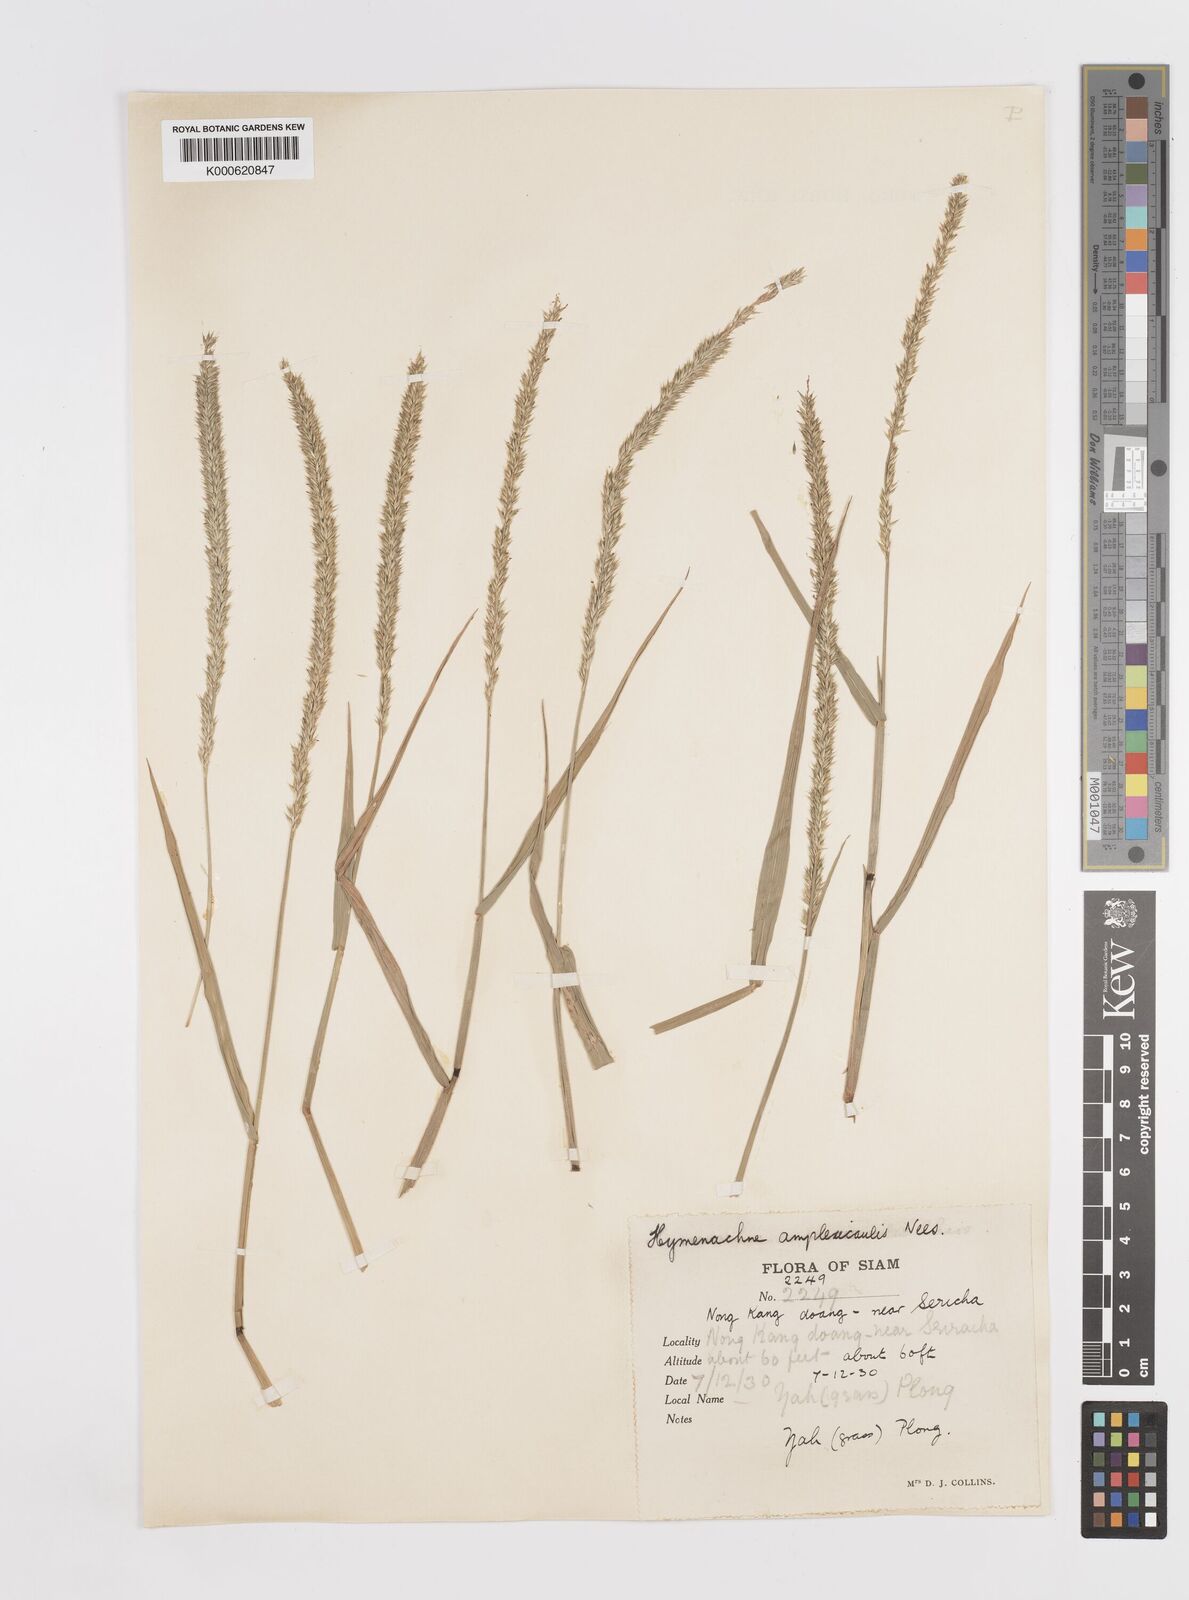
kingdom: Plantae
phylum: Tracheophyta
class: Liliopsida
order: Poales
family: Poaceae
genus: Hymenachne
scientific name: Hymenachne amplexicaulis
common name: Olive hymenachne
